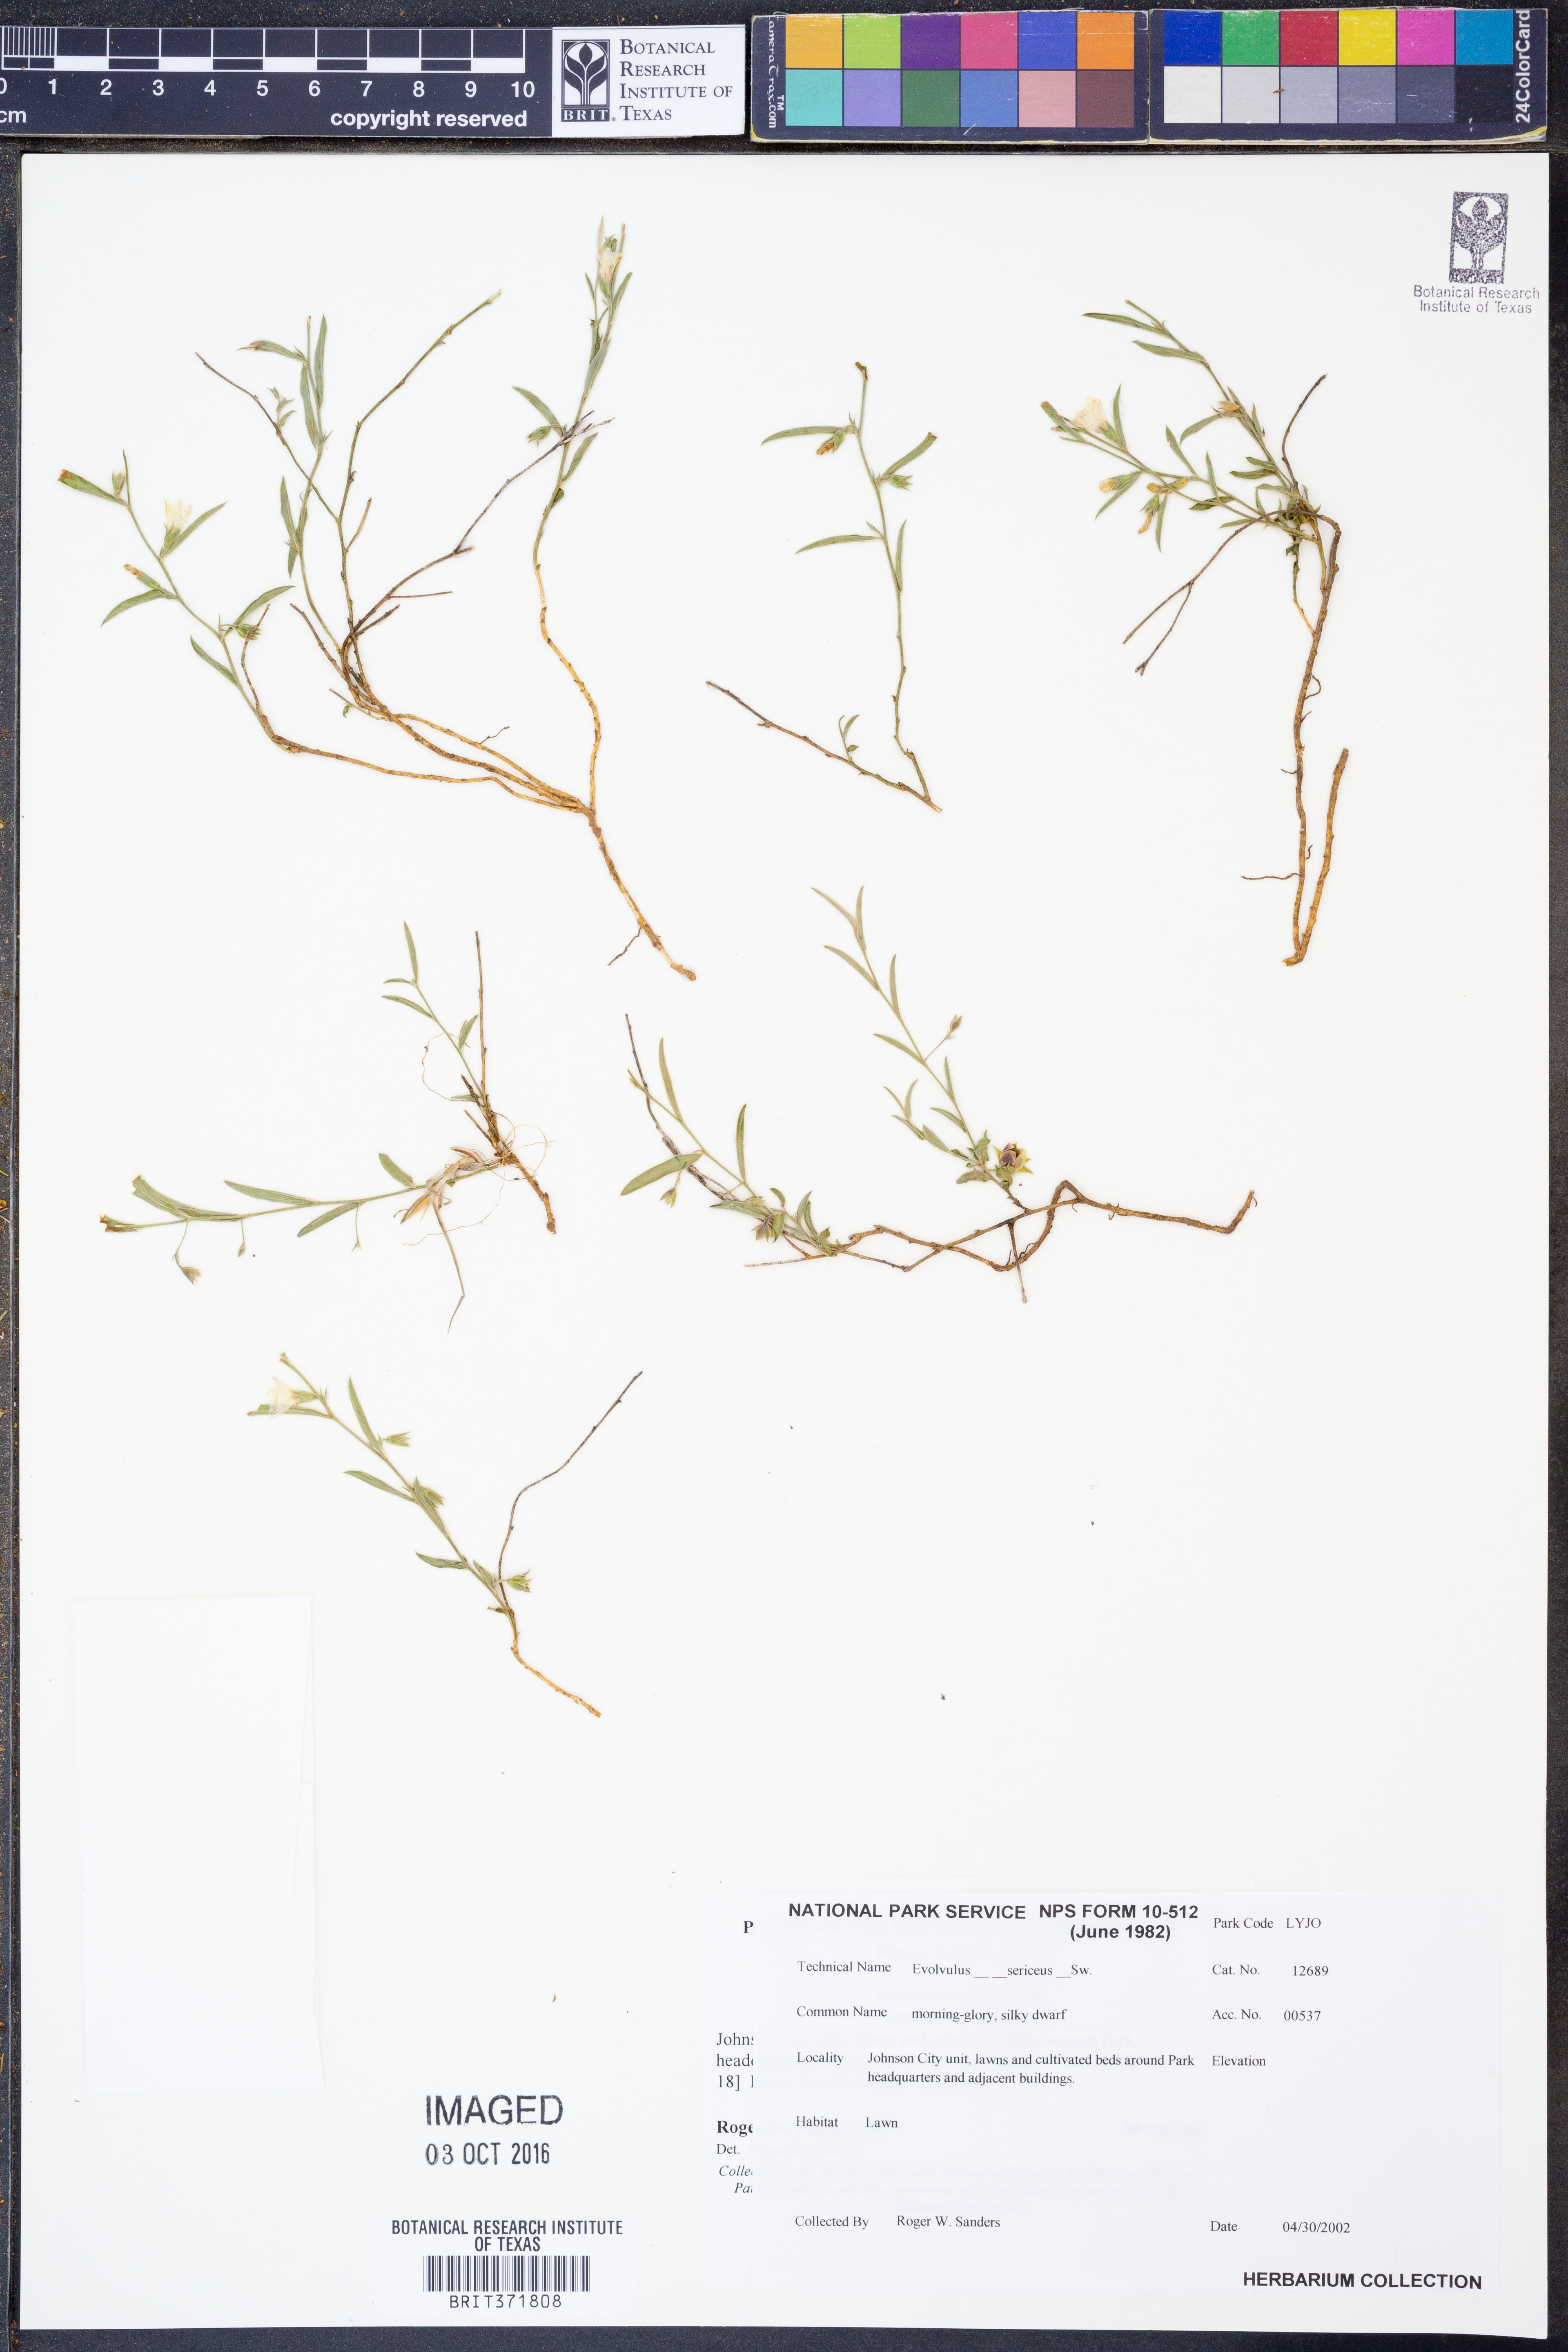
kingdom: Plantae
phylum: Tracheophyta
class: Magnoliopsida
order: Solanales
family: Convolvulaceae
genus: Evolvulus
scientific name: Evolvulus sericeus
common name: Blue dots
